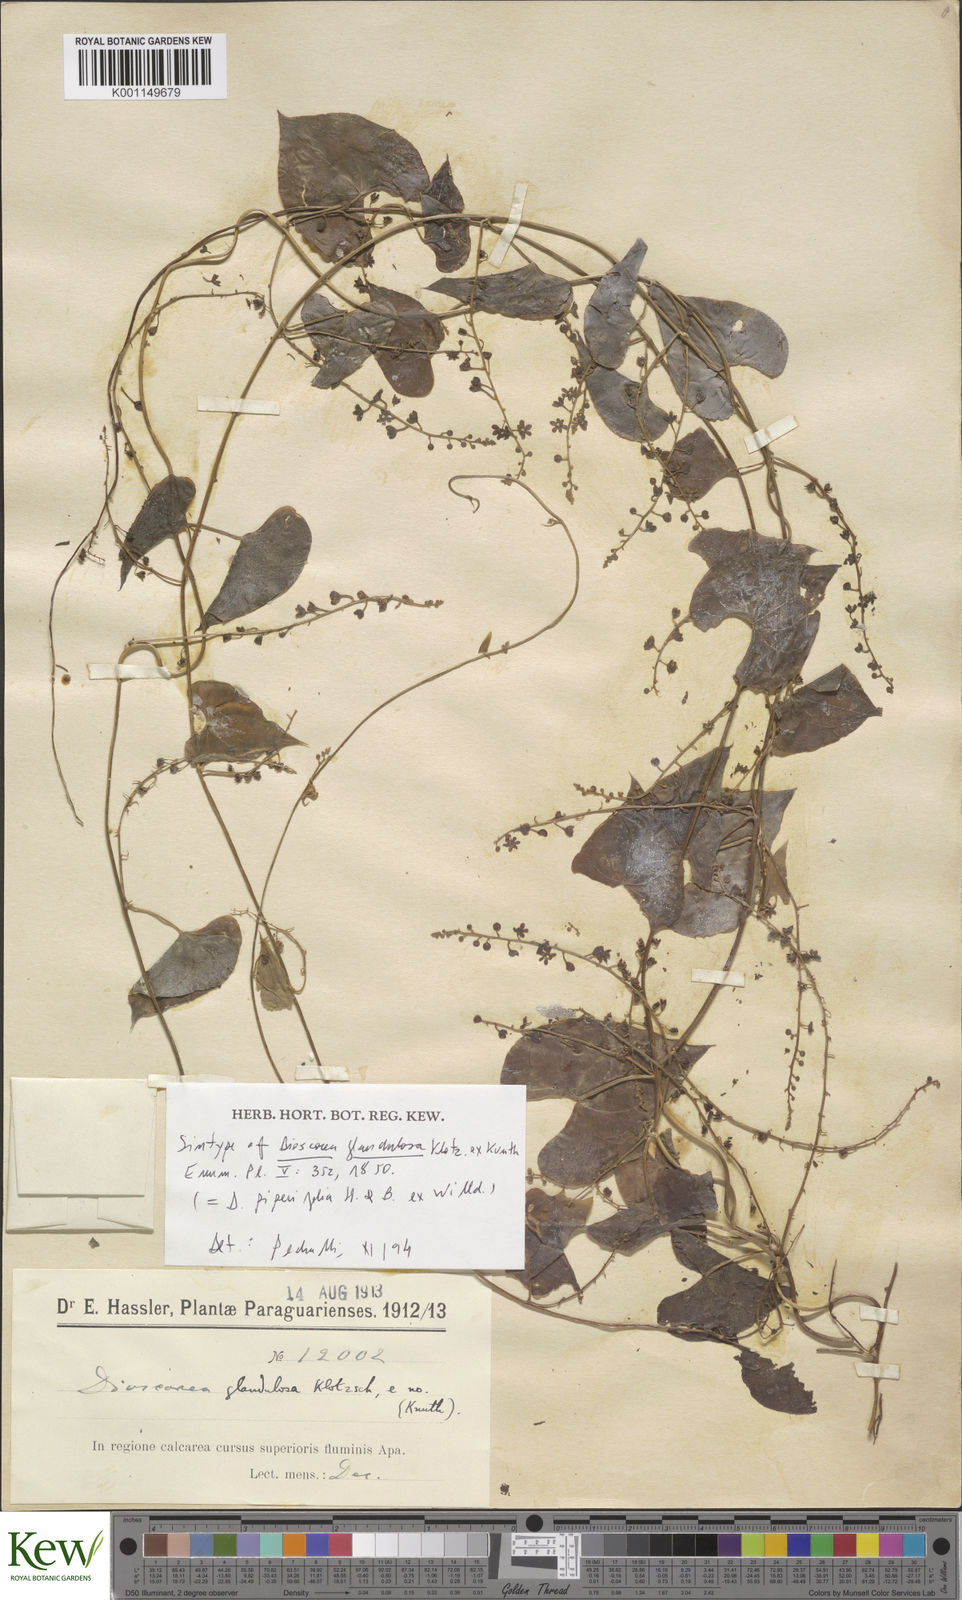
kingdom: Plantae
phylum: Tracheophyta
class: Liliopsida
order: Dioscoreales
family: Dioscoreaceae
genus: Dioscorea
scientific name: Dioscorea glandulosa
